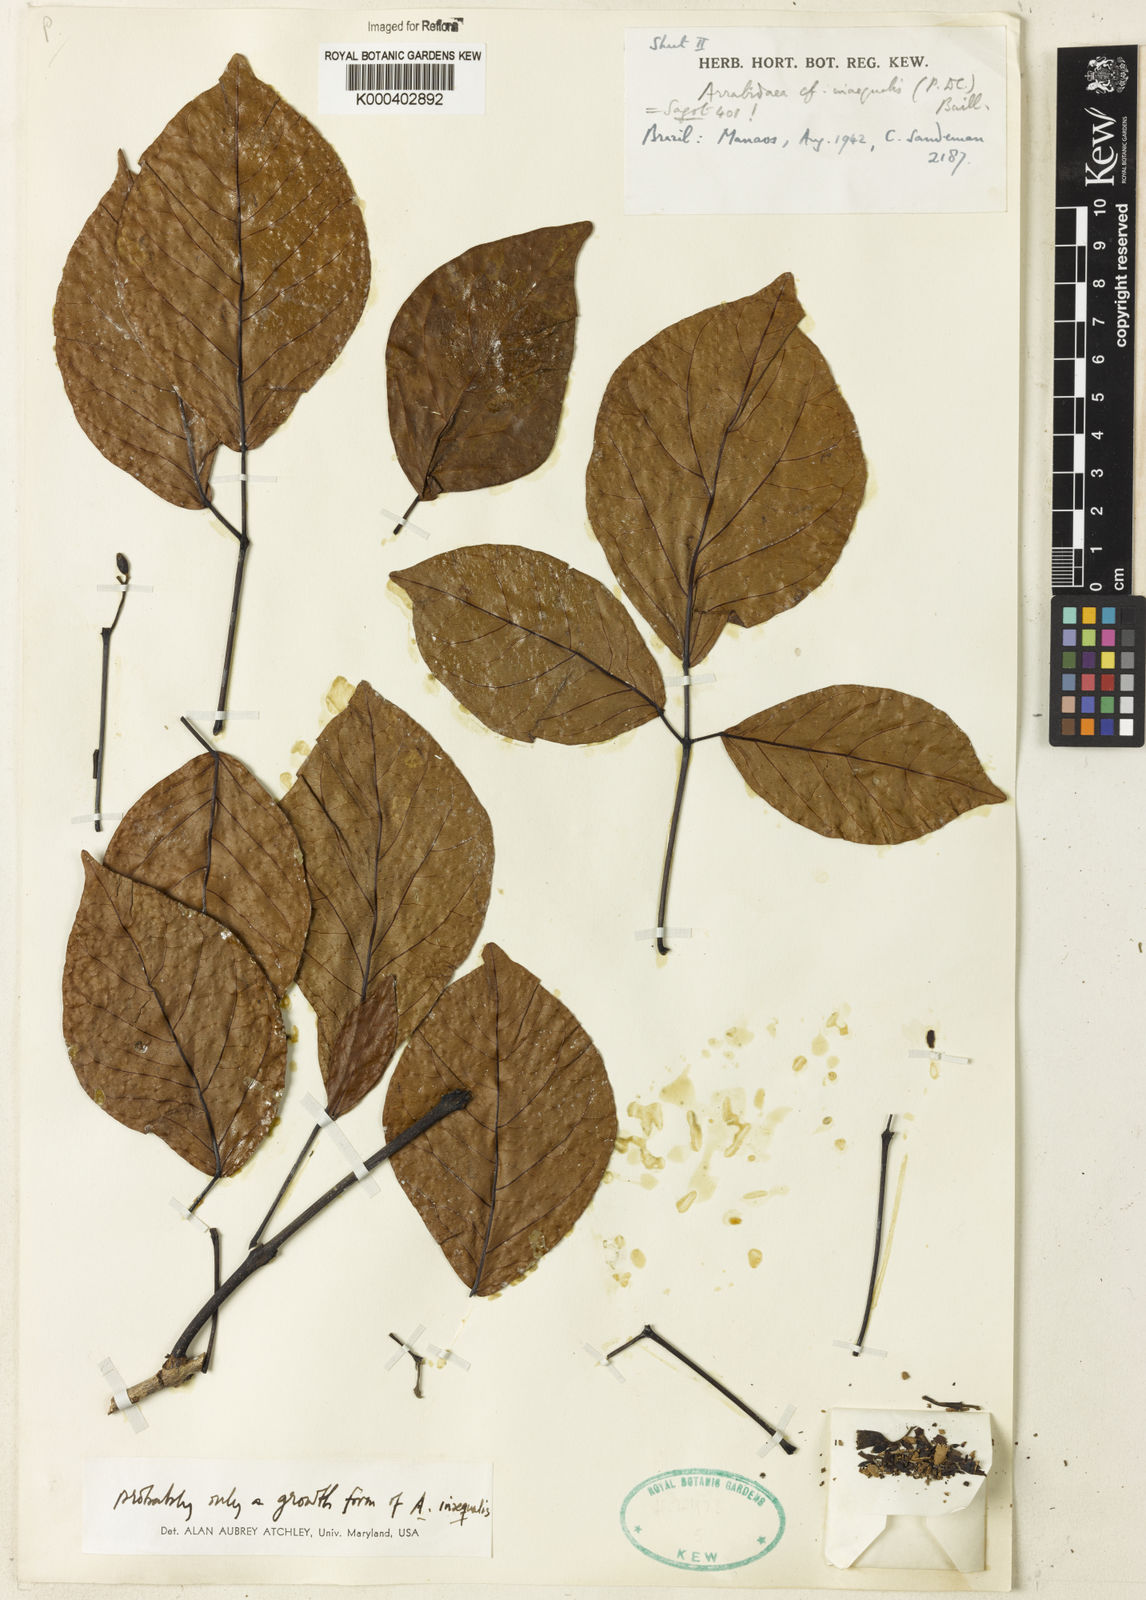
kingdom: Plantae
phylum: Tracheophyta
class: Magnoliopsida
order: Lamiales
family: Bignoniaceae
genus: Cuspidaria
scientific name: Cuspidaria inaequalis
